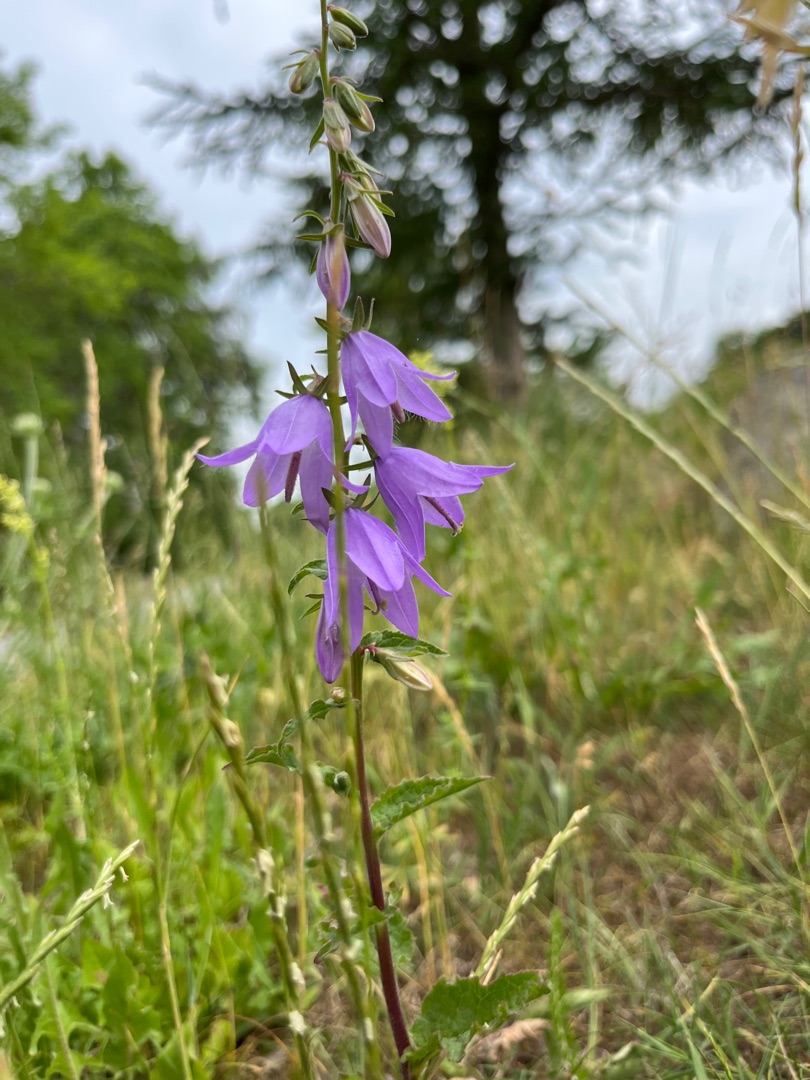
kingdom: Plantae
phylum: Tracheophyta
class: Magnoliopsida
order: Asterales
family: Campanulaceae
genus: Campanula
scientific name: Campanula rapunculoides
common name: Ensidig klokke
